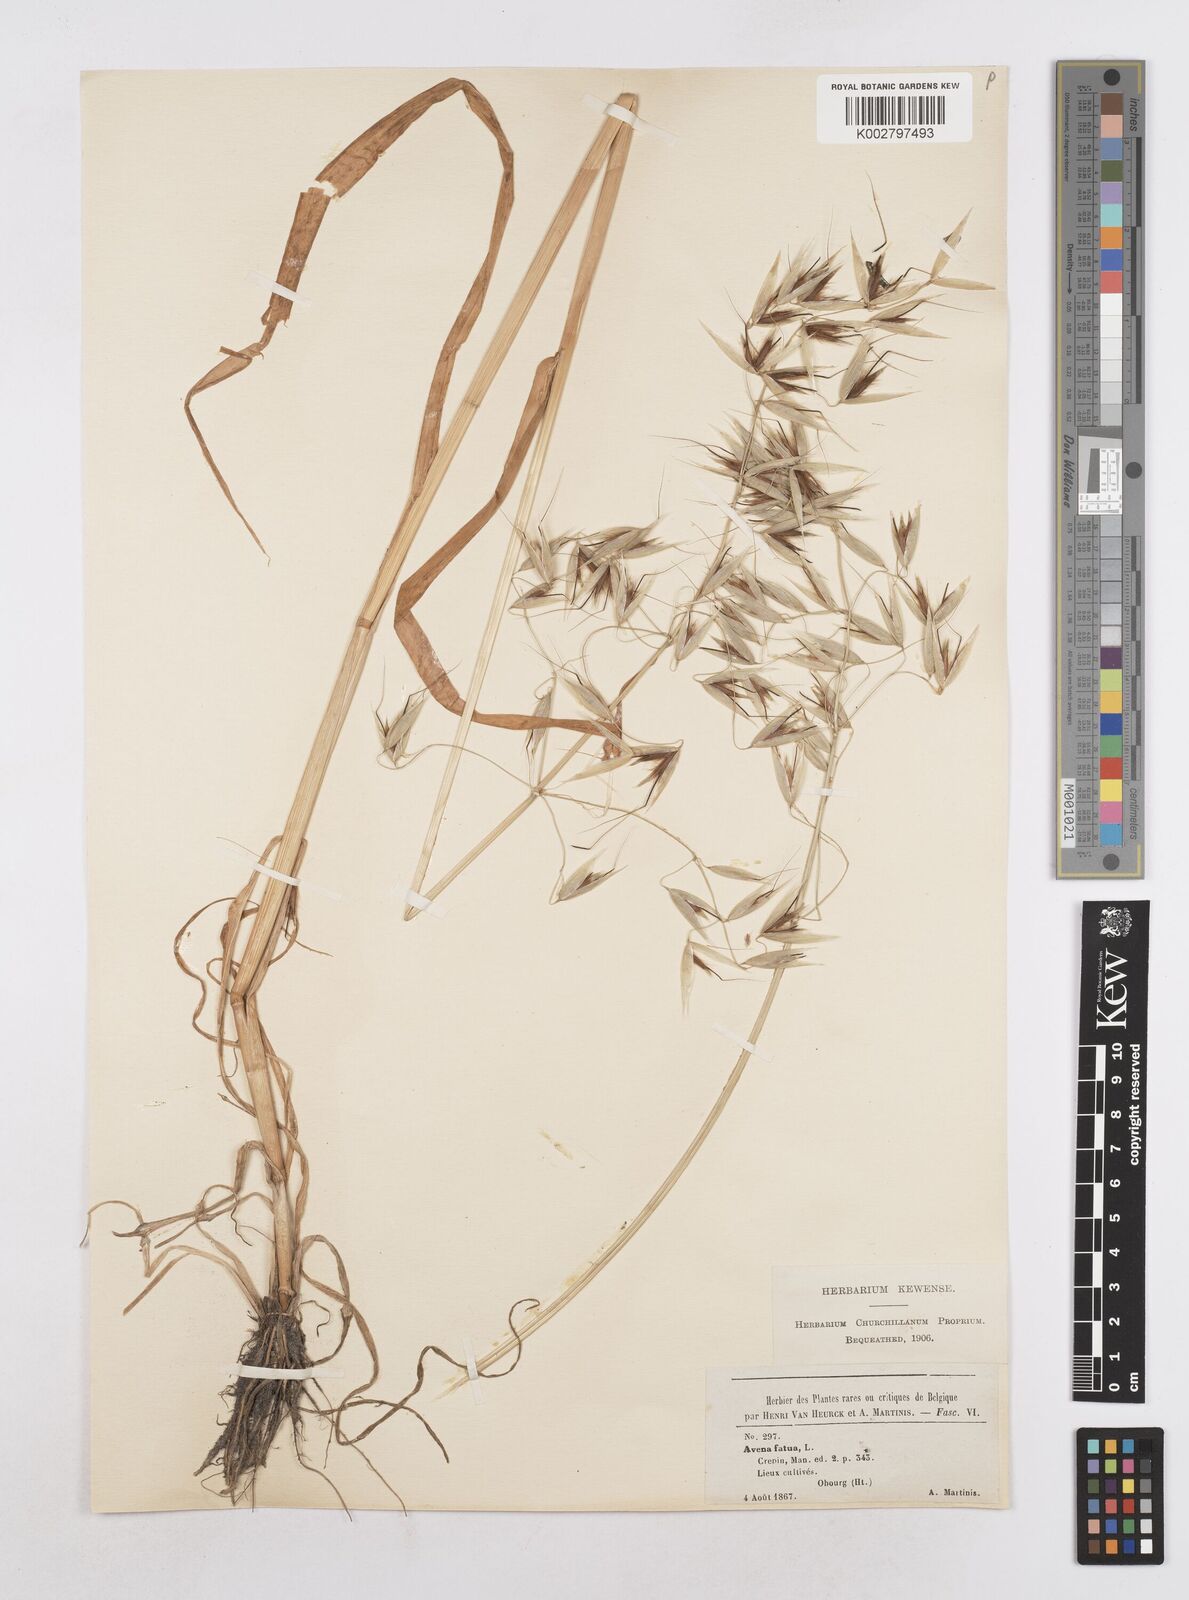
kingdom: Plantae
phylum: Tracheophyta
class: Liliopsida
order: Poales
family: Poaceae
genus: Avena
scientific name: Avena fatua
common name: Wild oat
